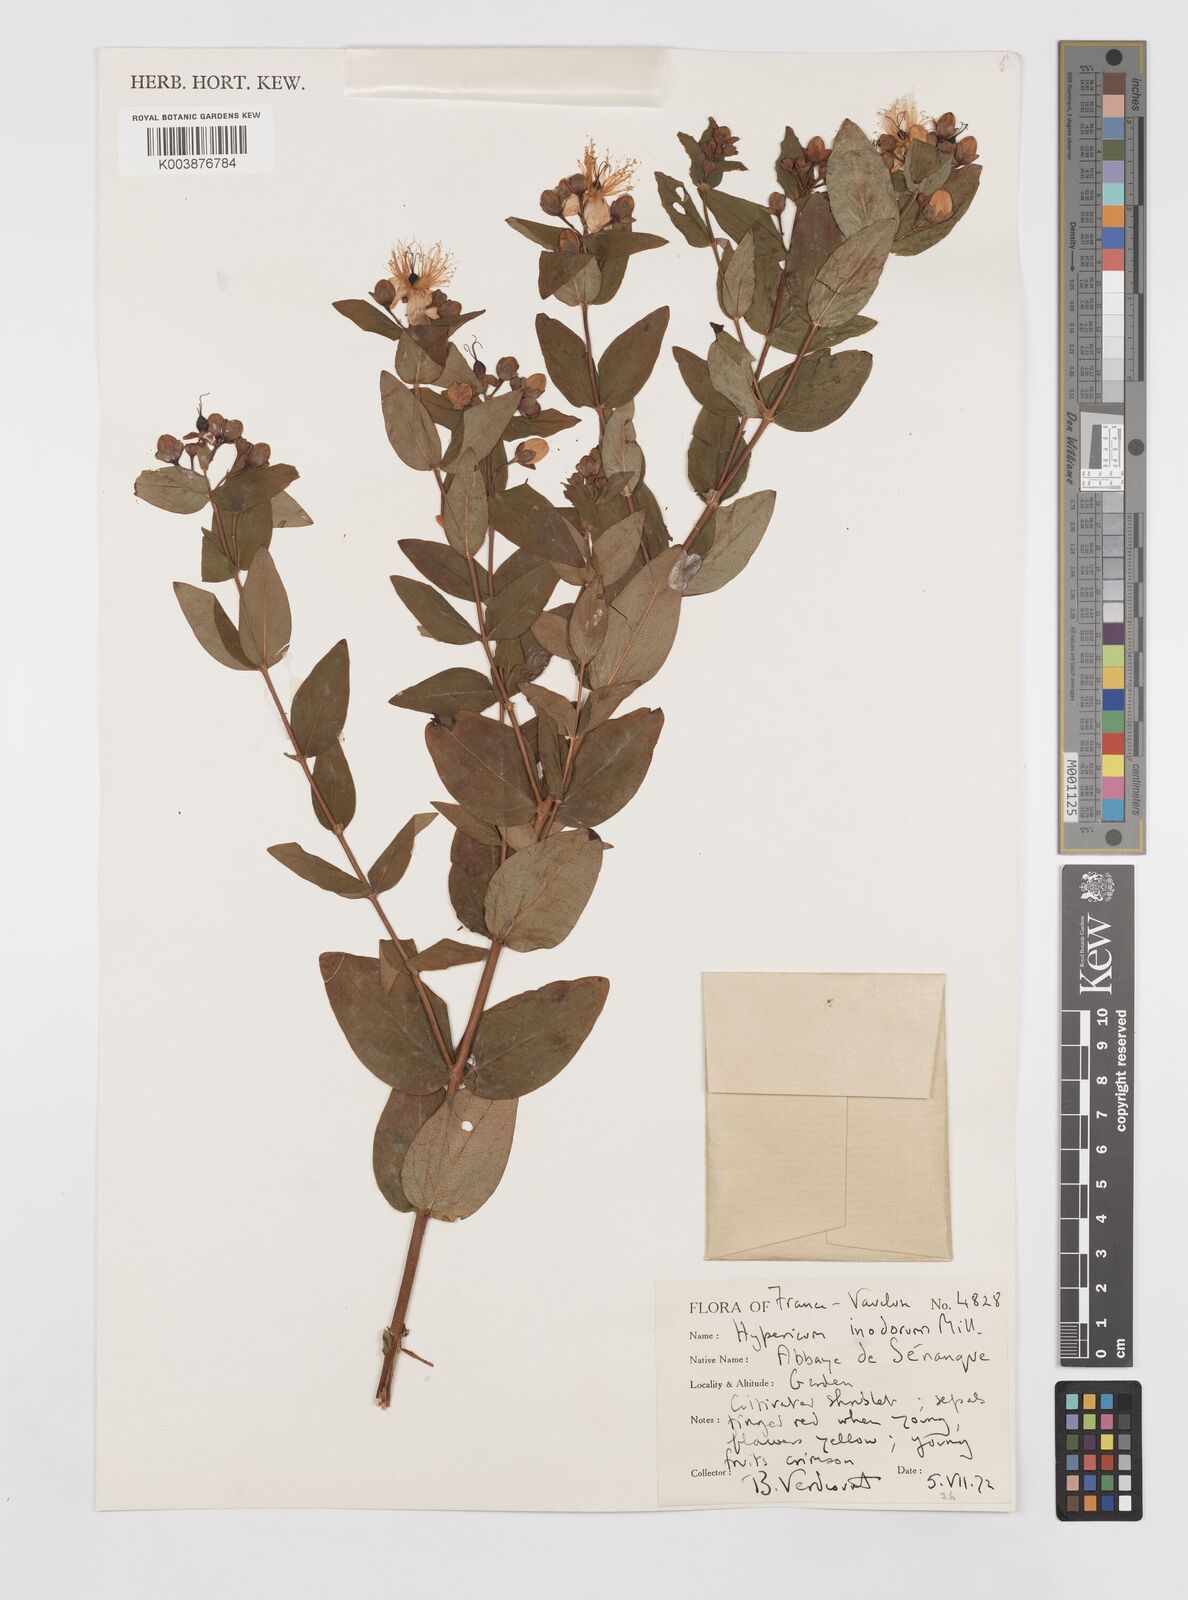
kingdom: Plantae
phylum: Tracheophyta
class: Magnoliopsida
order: Malpighiales
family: Hypericaceae
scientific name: Hypericaceae
